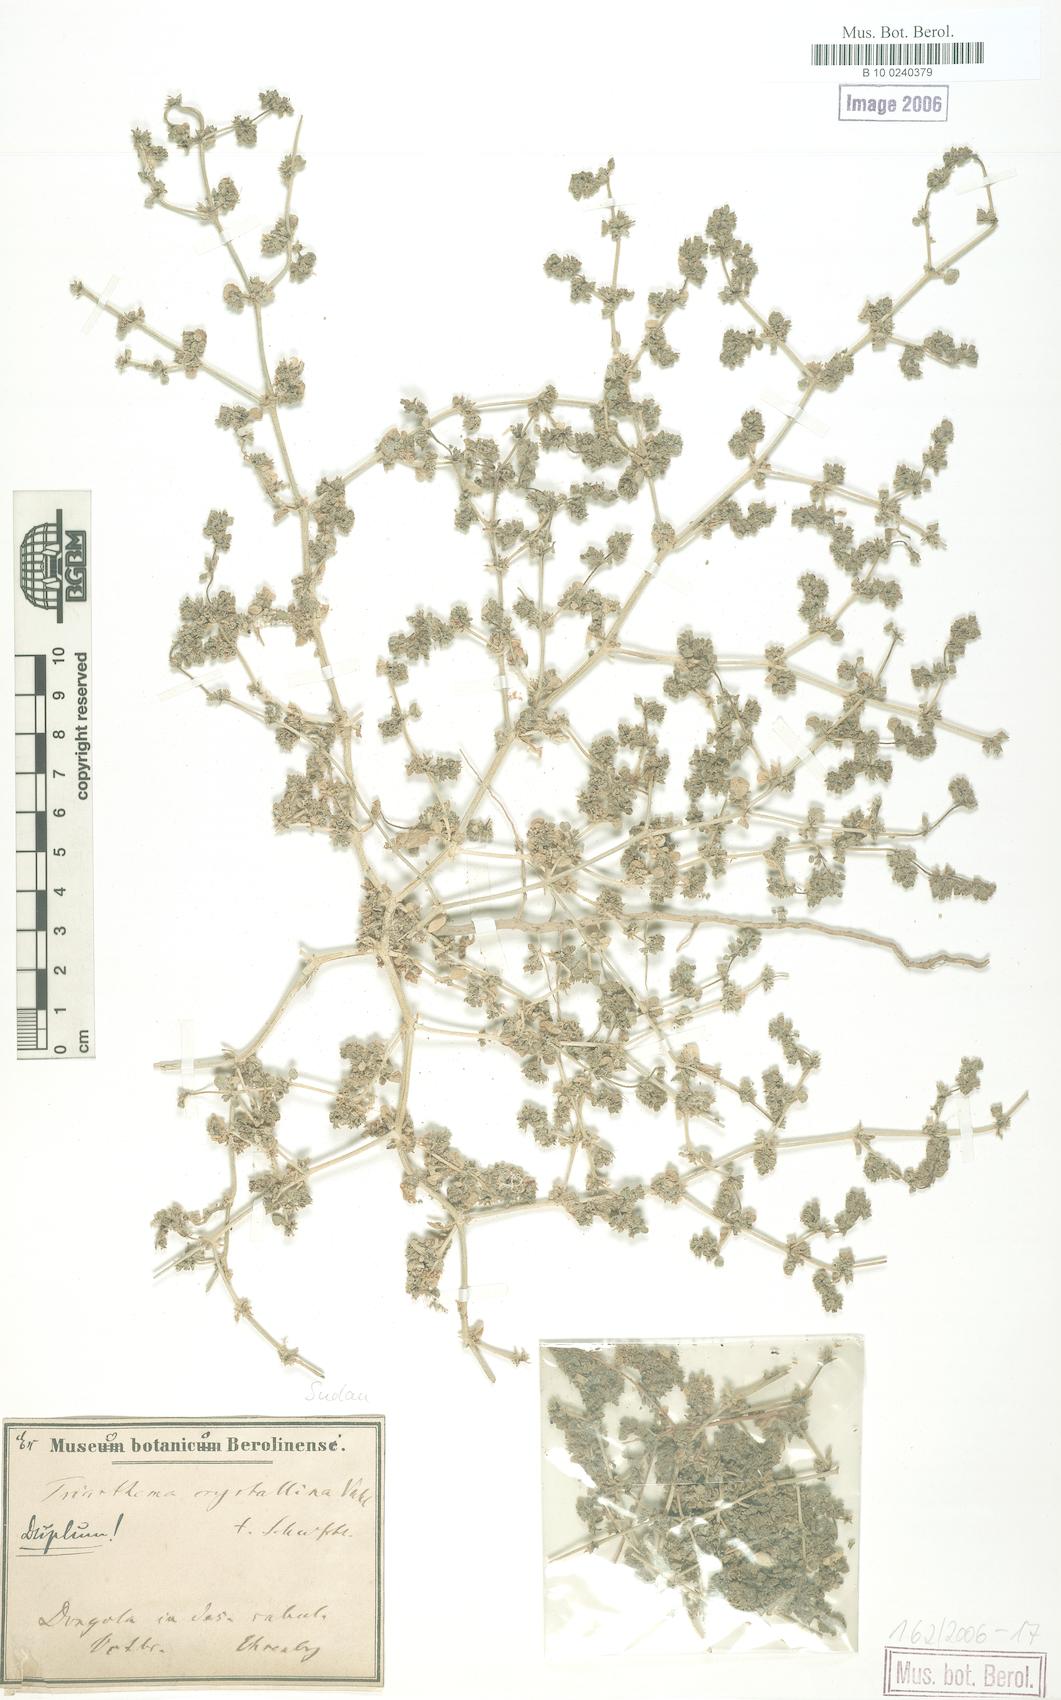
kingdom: Plantae
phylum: Tracheophyta
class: Magnoliopsida
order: Caryophyllales
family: Aizoaceae
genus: Trianthema
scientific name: Trianthema sheilae
